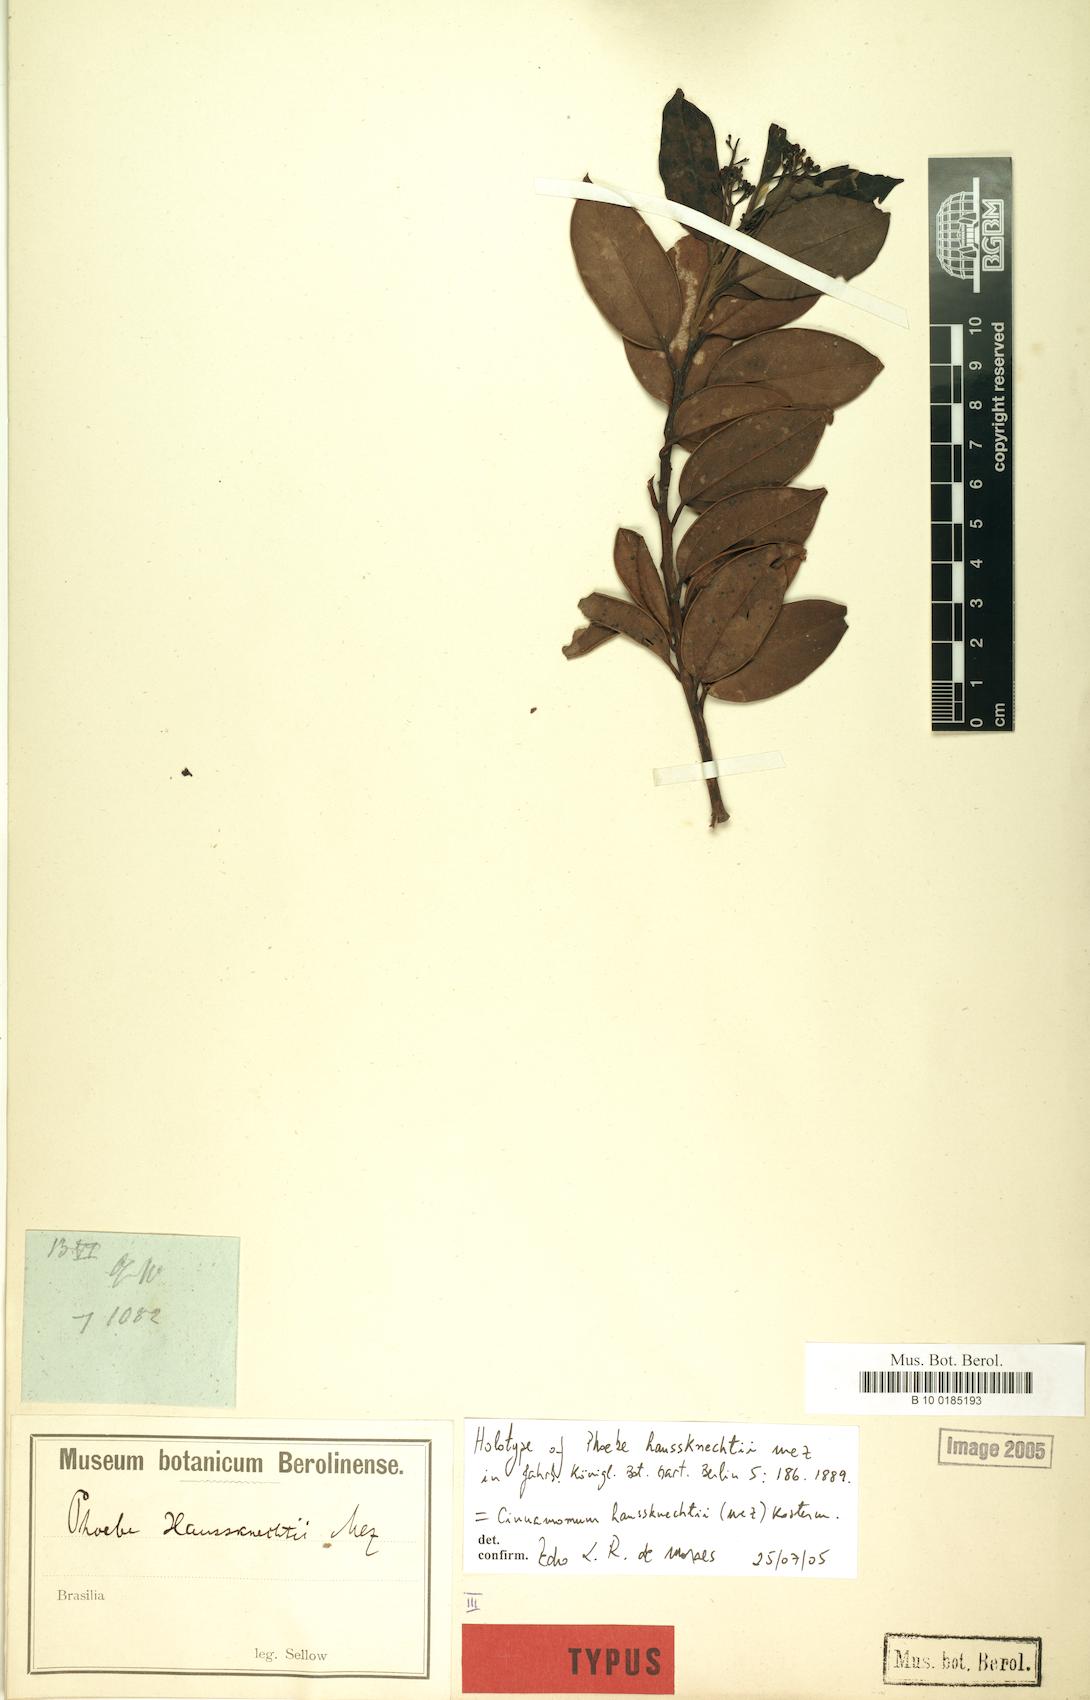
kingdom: Plantae
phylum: Tracheophyta
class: Magnoliopsida
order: Laurales
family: Lauraceae
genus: Aiouea
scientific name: Aiouea haussknechtii
